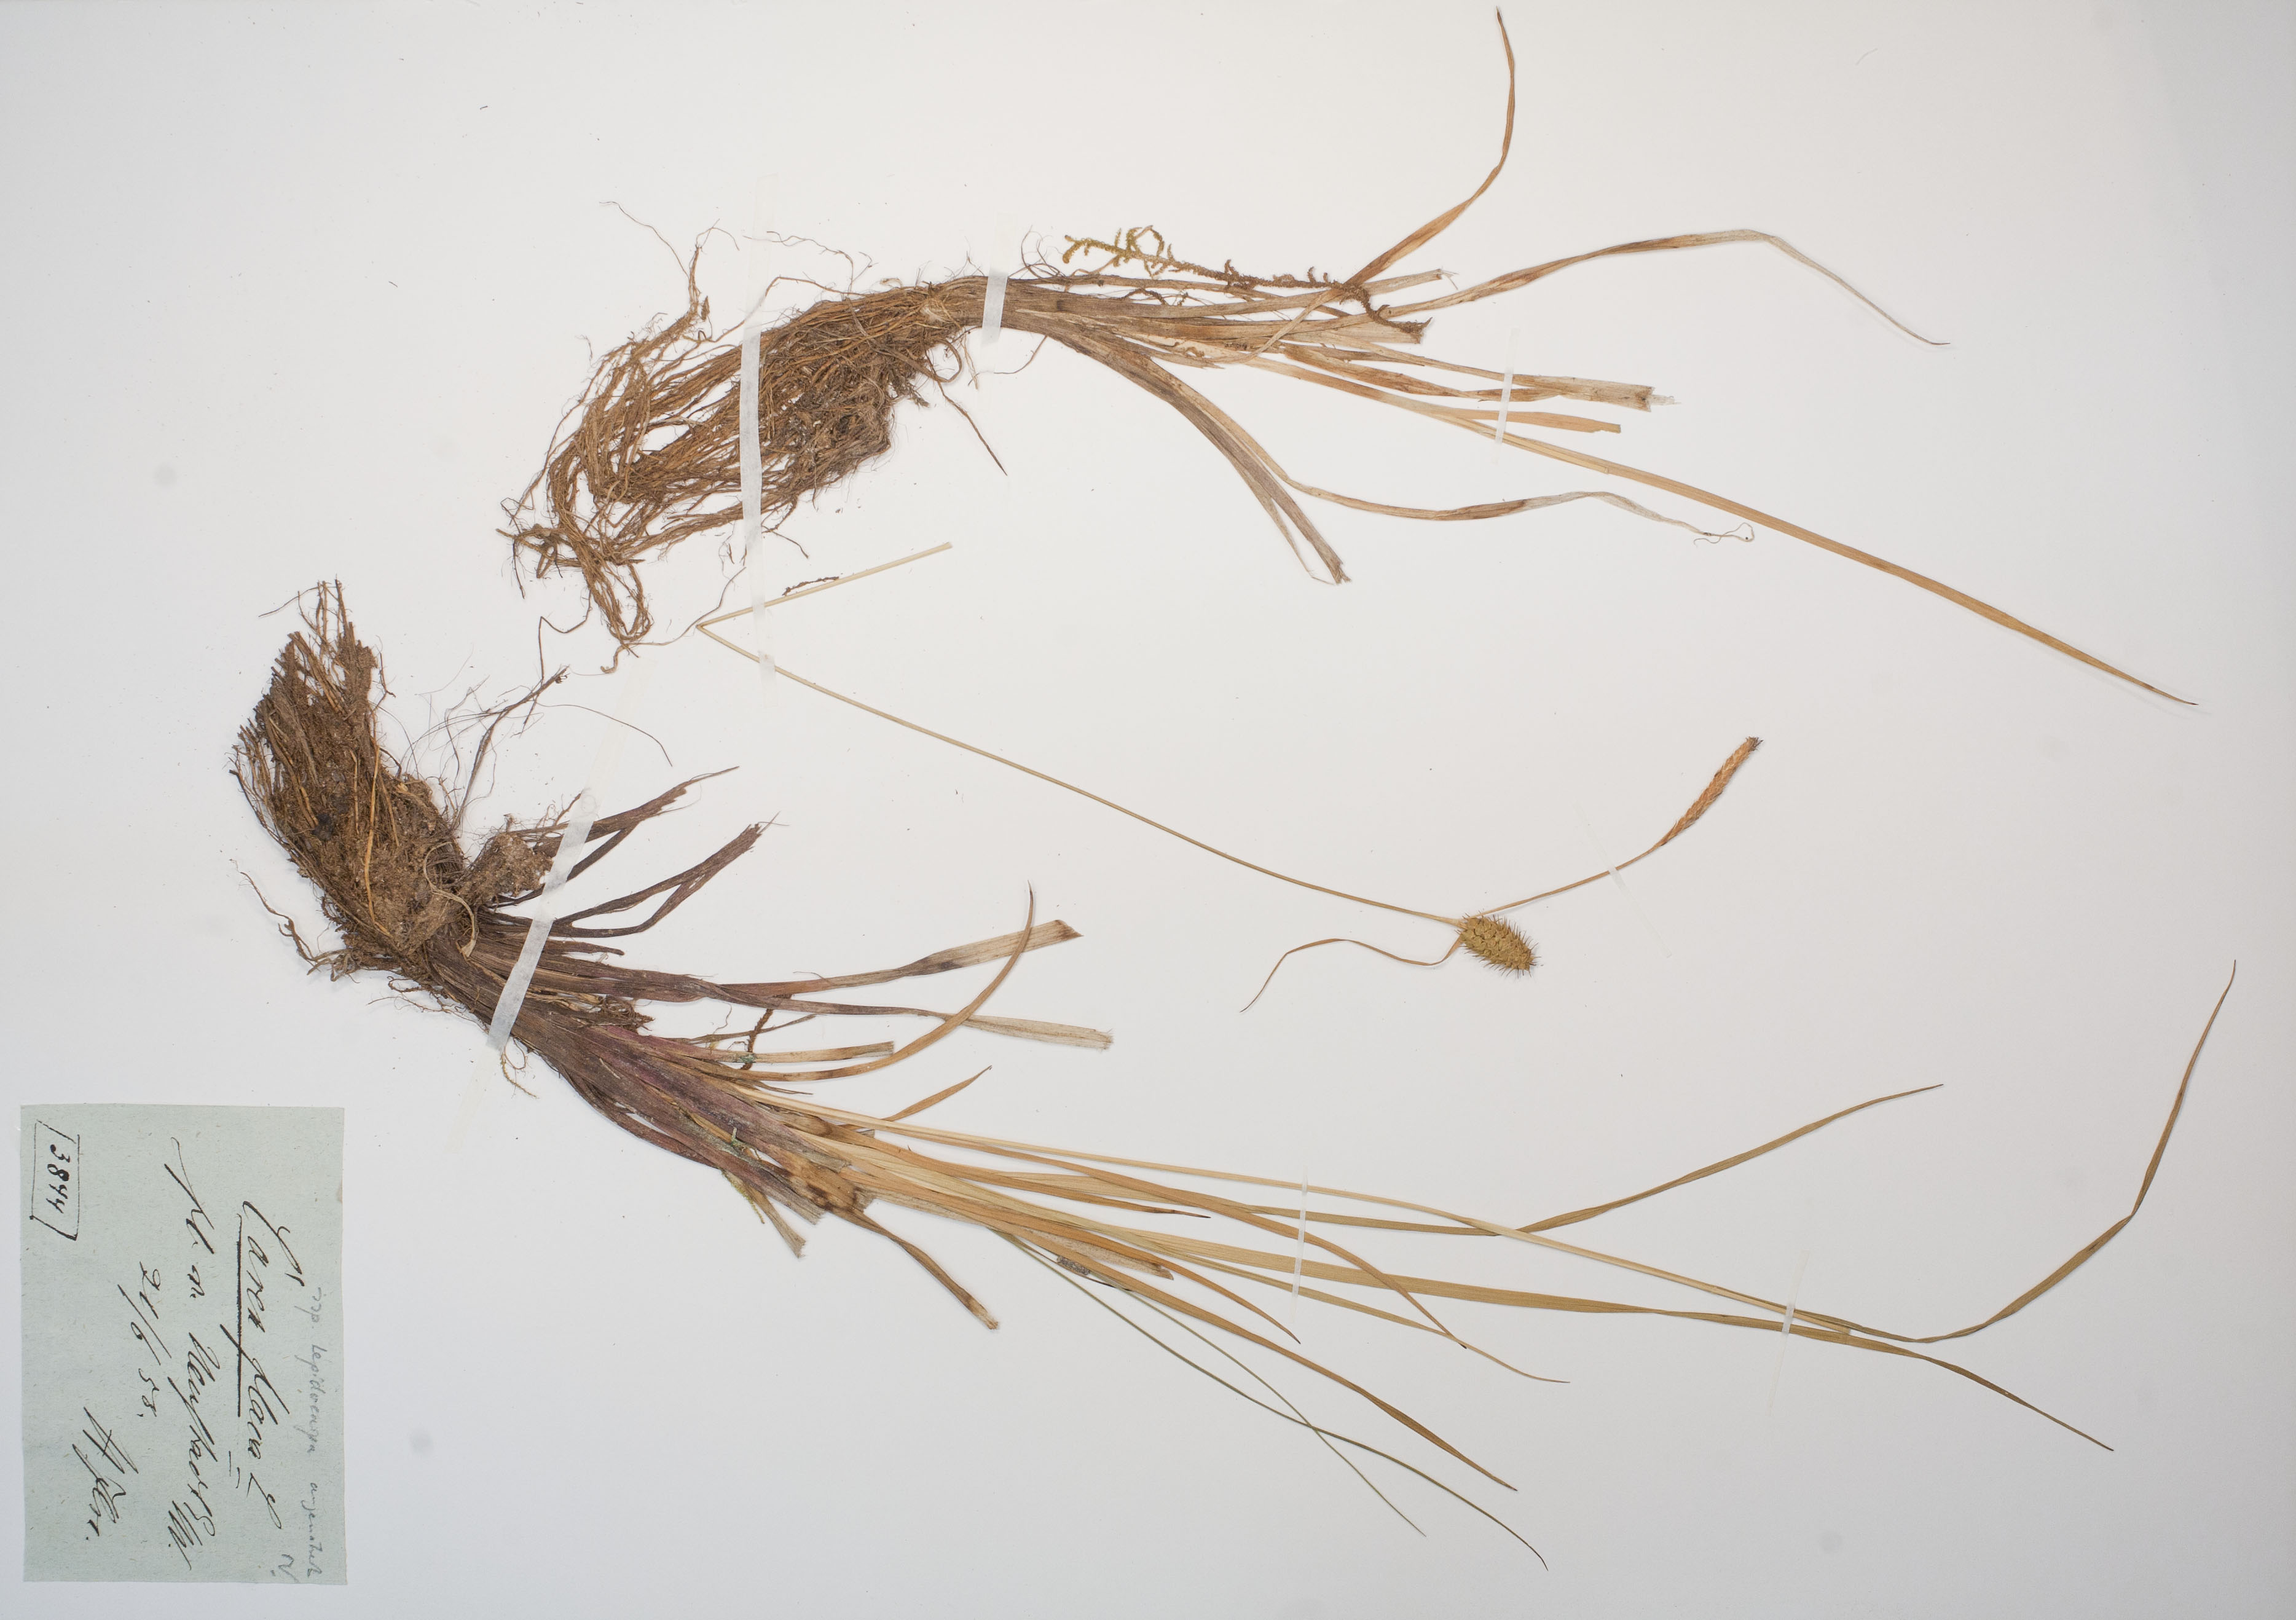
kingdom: Plantae
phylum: Tracheophyta
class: Liliopsida
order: Poales
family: Cyperaceae
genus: Carex
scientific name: Carex lepidocarpa
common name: Long-stalked yellow-sedge
